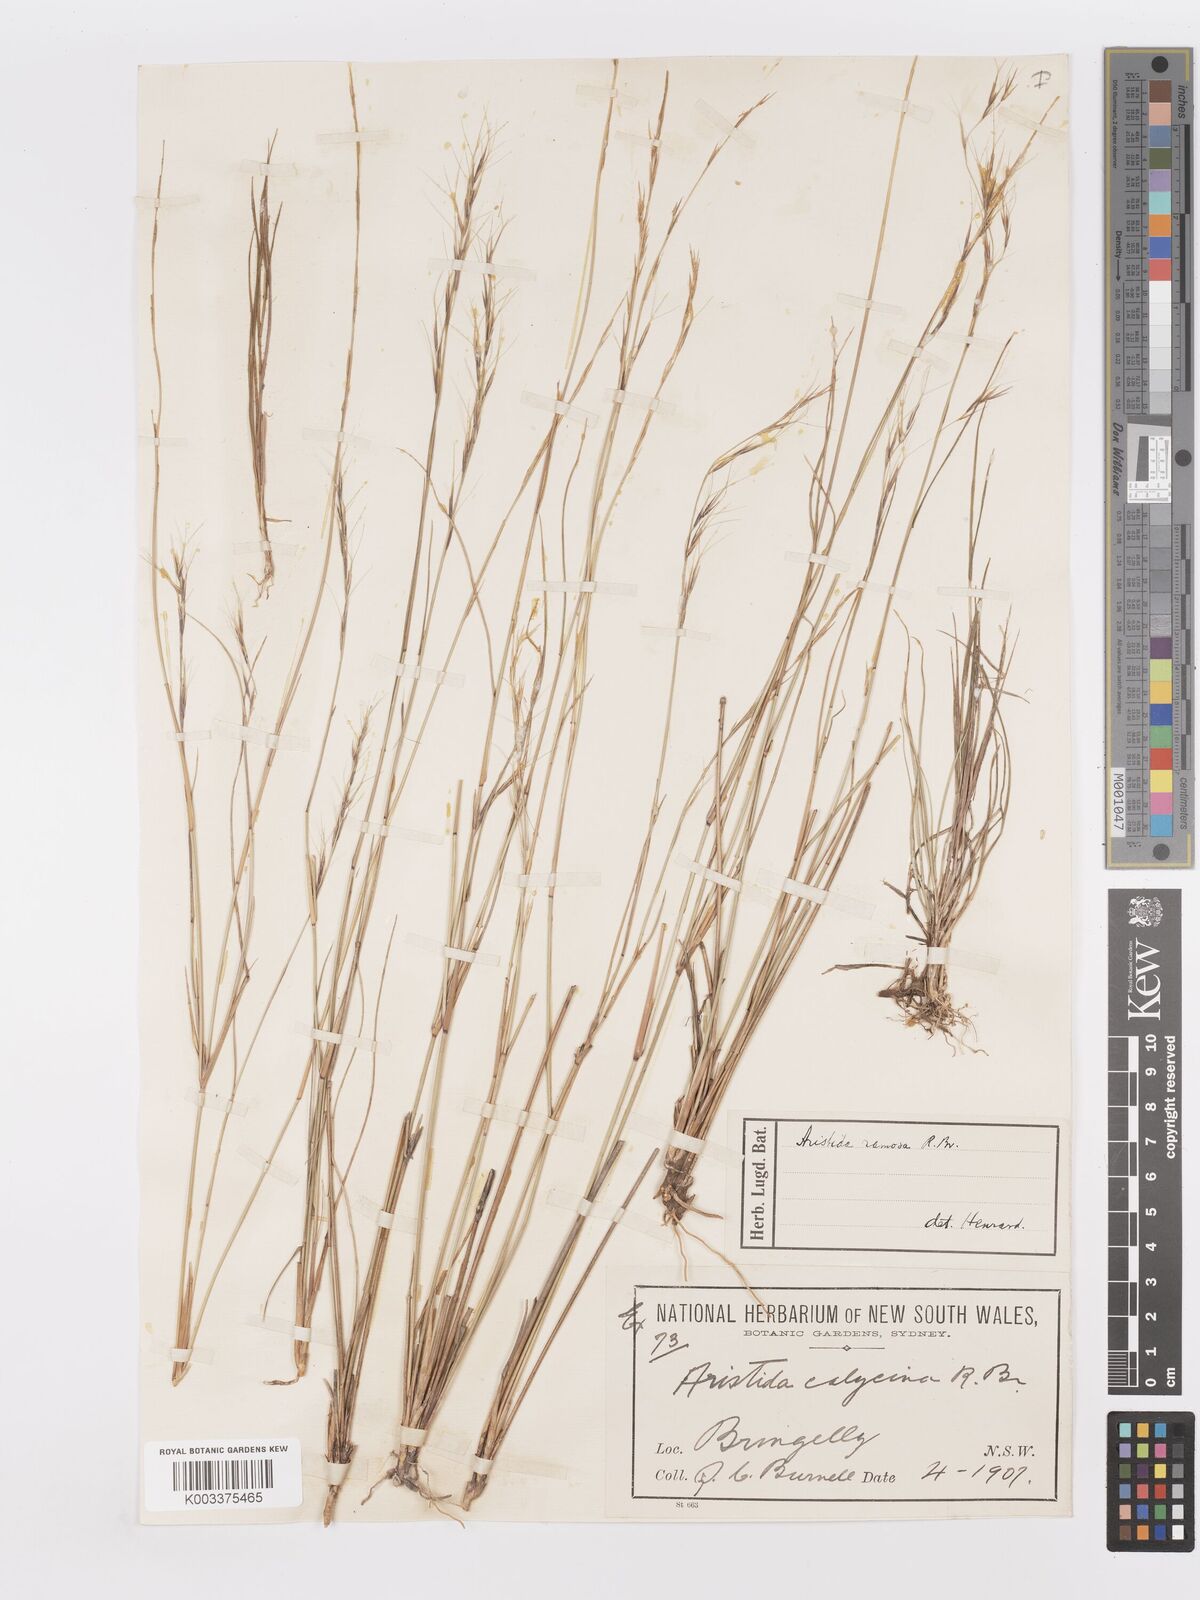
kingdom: Plantae
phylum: Tracheophyta
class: Liliopsida
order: Poales
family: Poaceae
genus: Aristida
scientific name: Aristida ramosa
